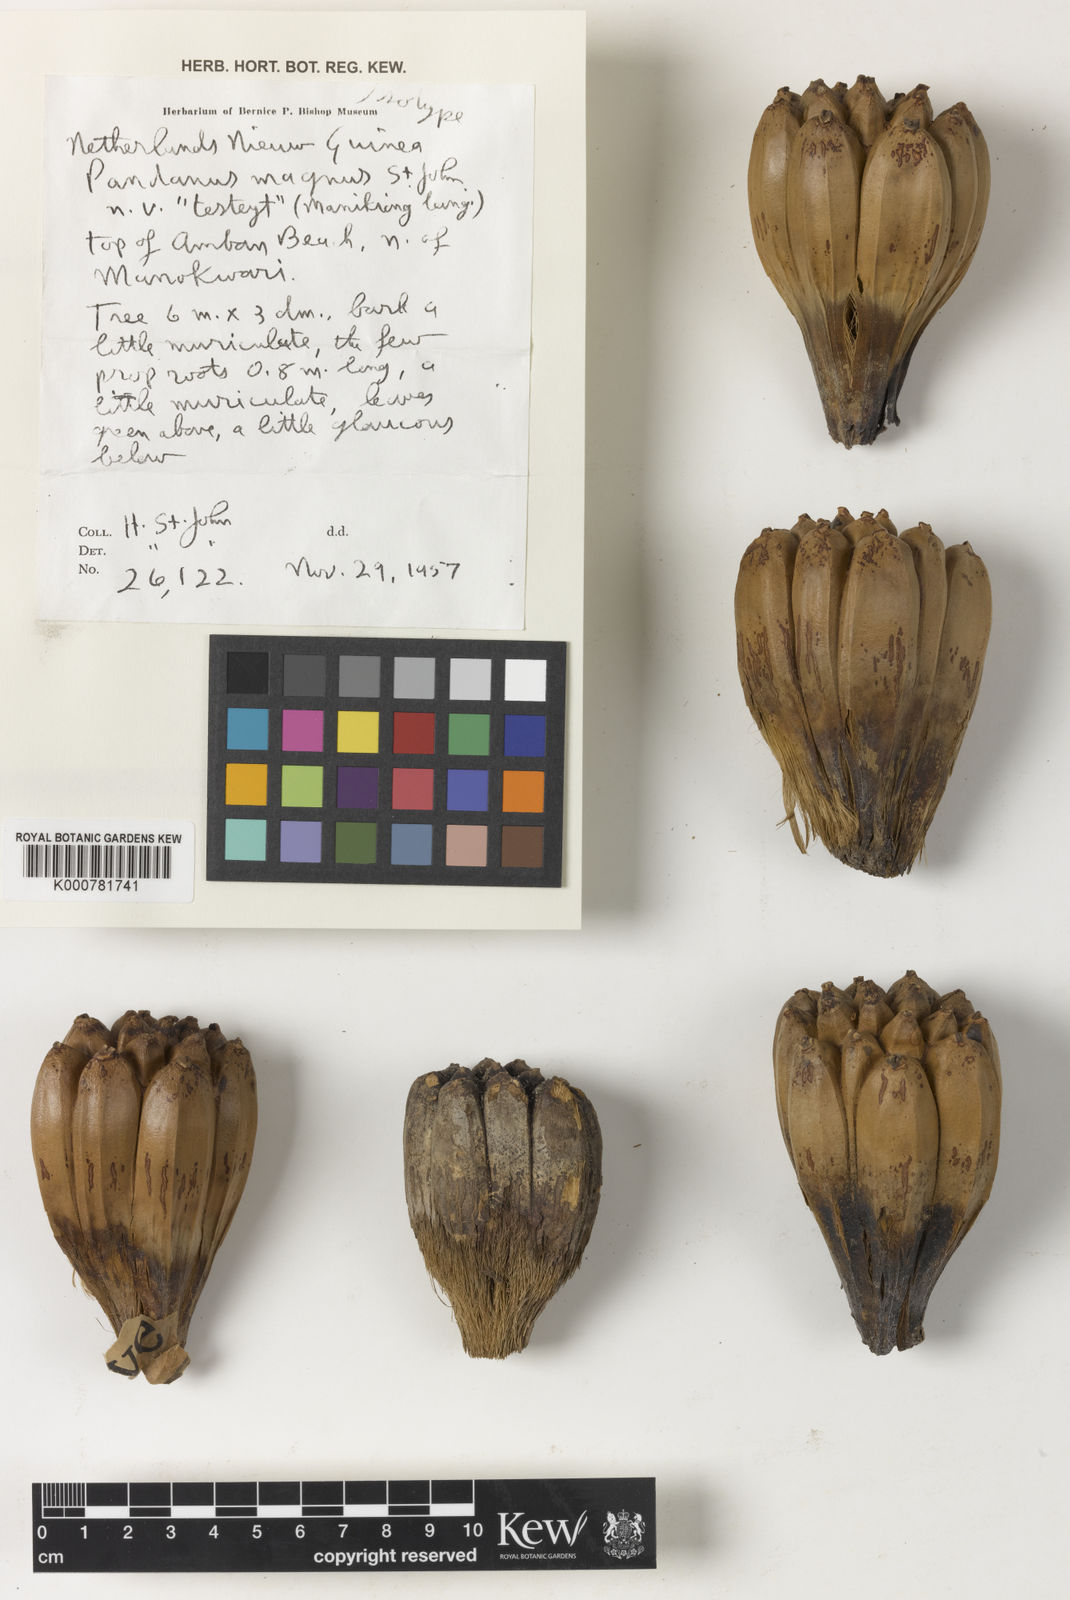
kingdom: Plantae
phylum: Tracheophyta
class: Liliopsida
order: Pandanales
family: Pandanaceae
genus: Pandanus
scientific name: Pandanus
